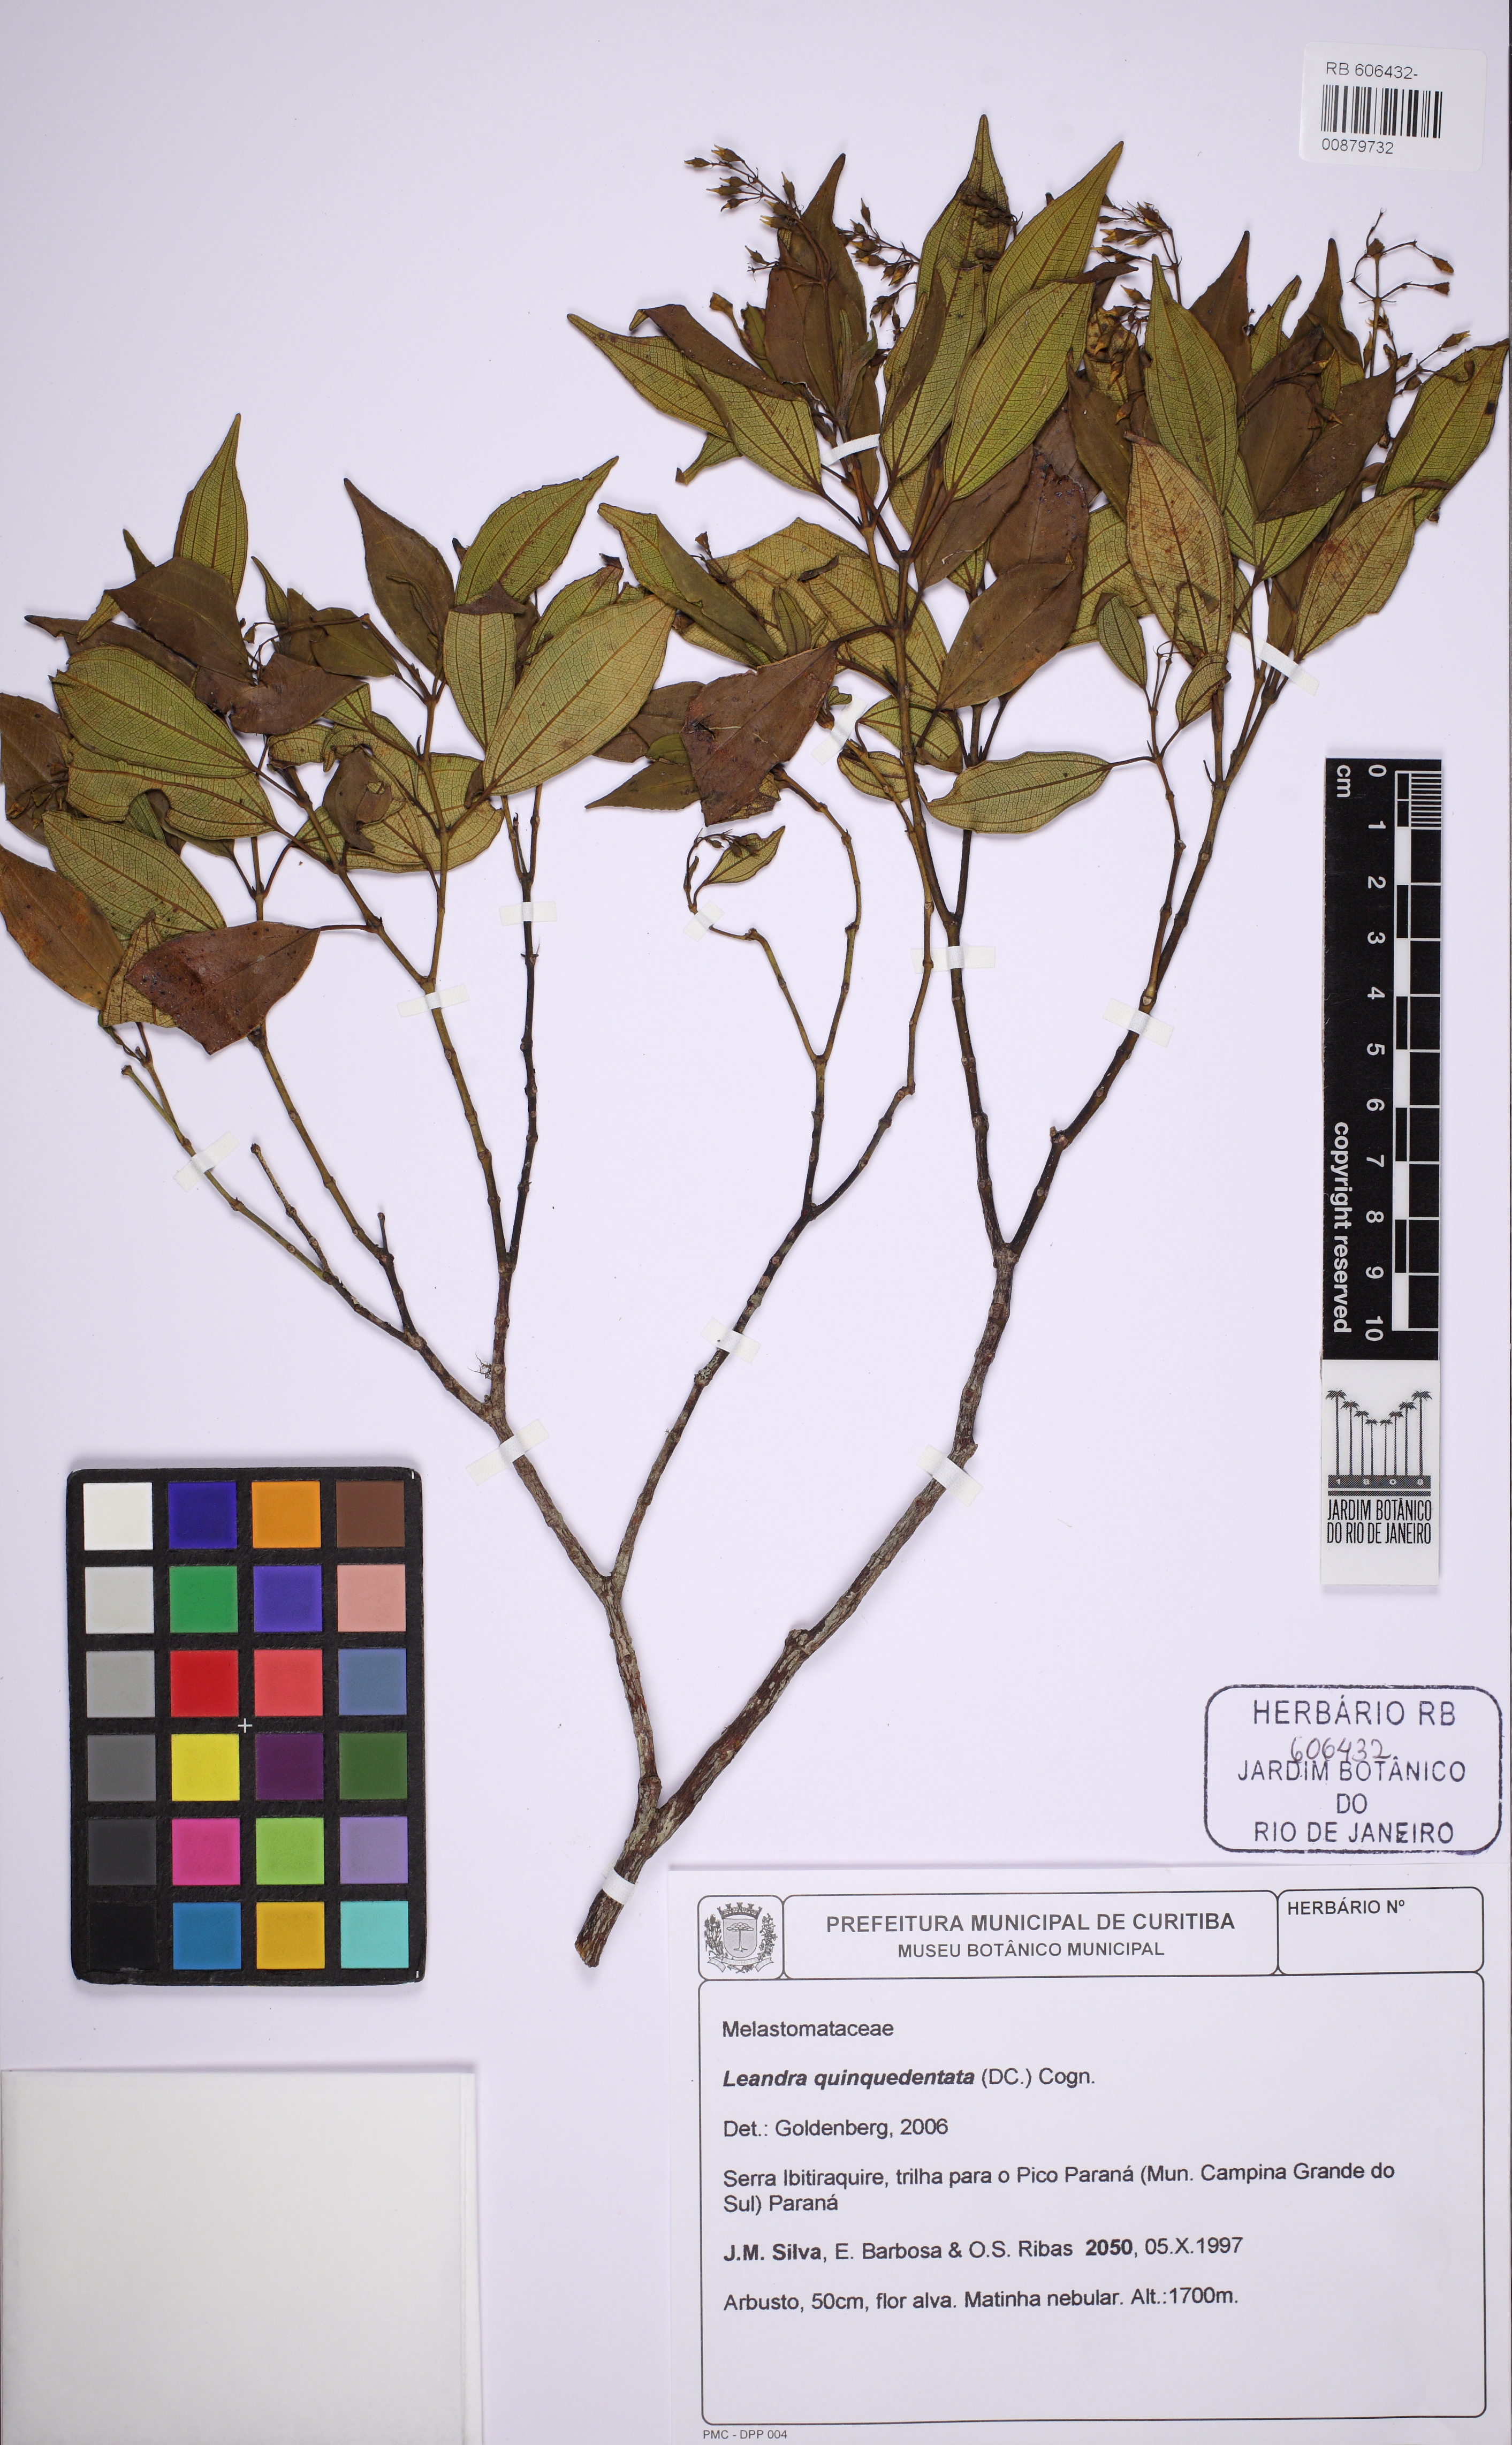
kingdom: Plantae
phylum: Tracheophyta
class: Magnoliopsida
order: Myrtales
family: Melastomataceae
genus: Miconia
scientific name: Miconia quinquedentata
